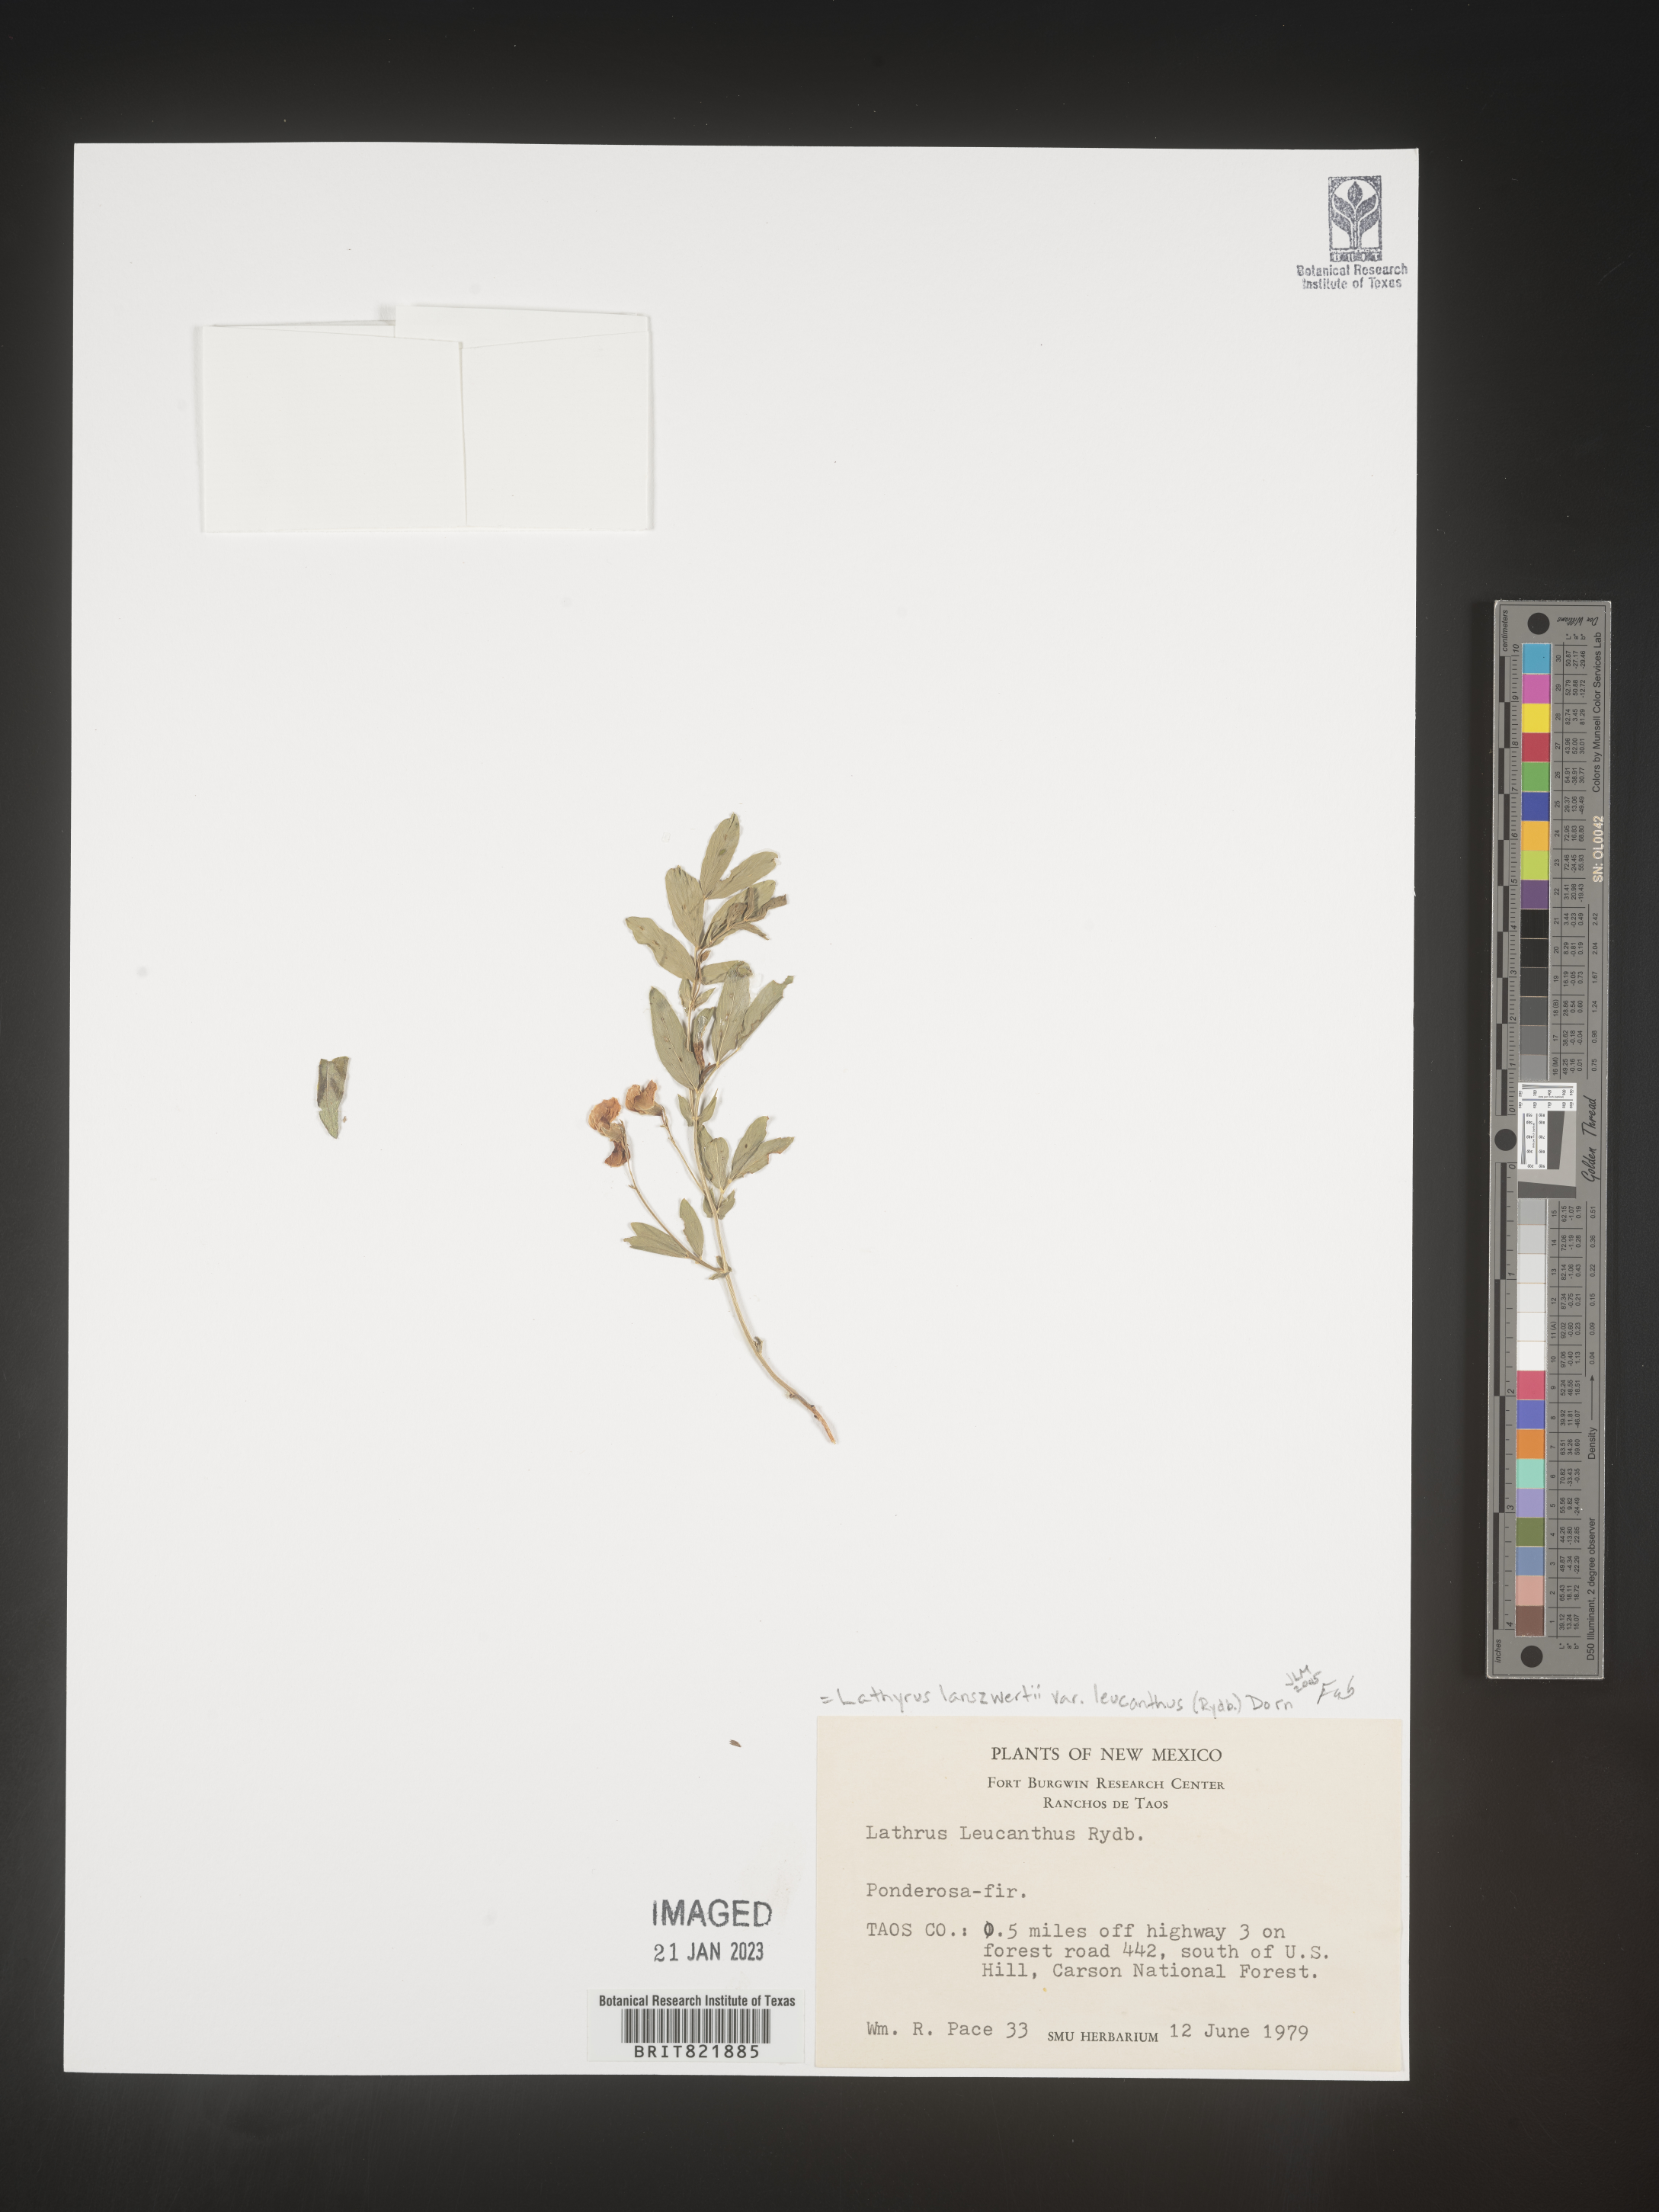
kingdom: Plantae
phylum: Tracheophyta
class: Magnoliopsida
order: Fabales
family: Fabaceae
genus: Lathyrus
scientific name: Lathyrus
